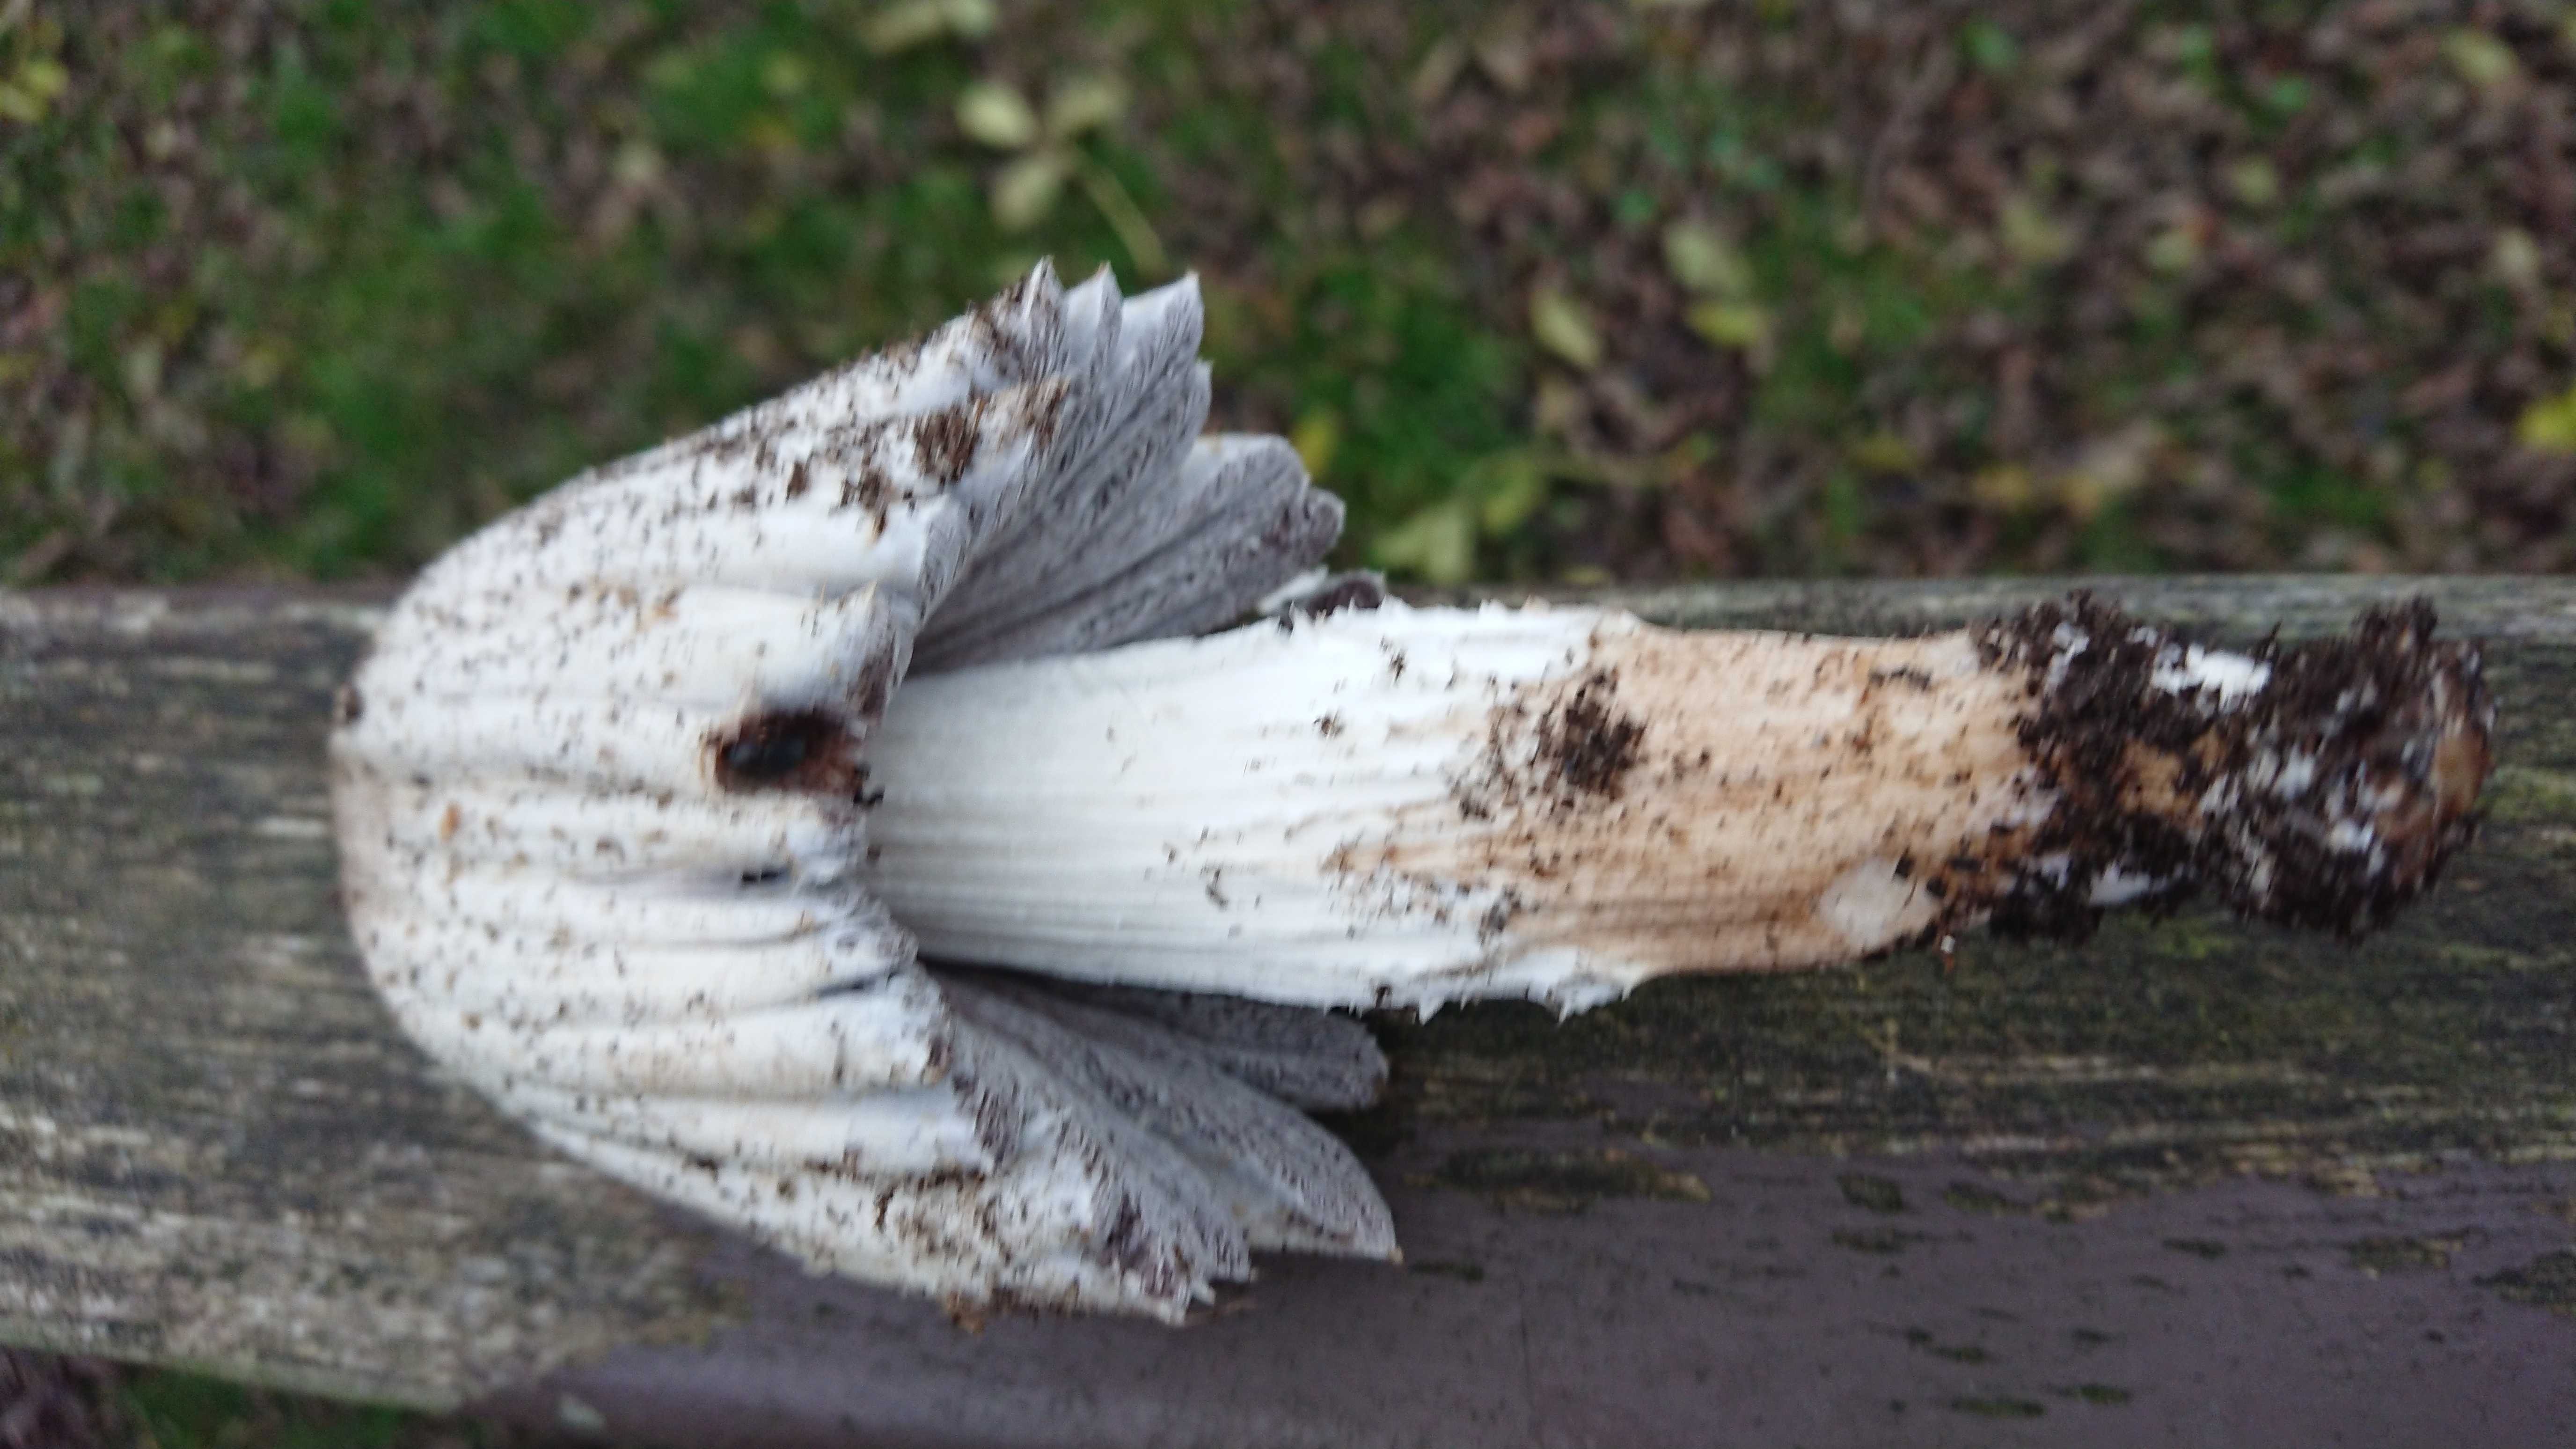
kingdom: Fungi
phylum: Basidiomycota
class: Agaricomycetes
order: Agaricales
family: Psathyrellaceae
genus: Coprinopsis
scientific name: Coprinopsis atramentaria
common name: almindelig blækhat
